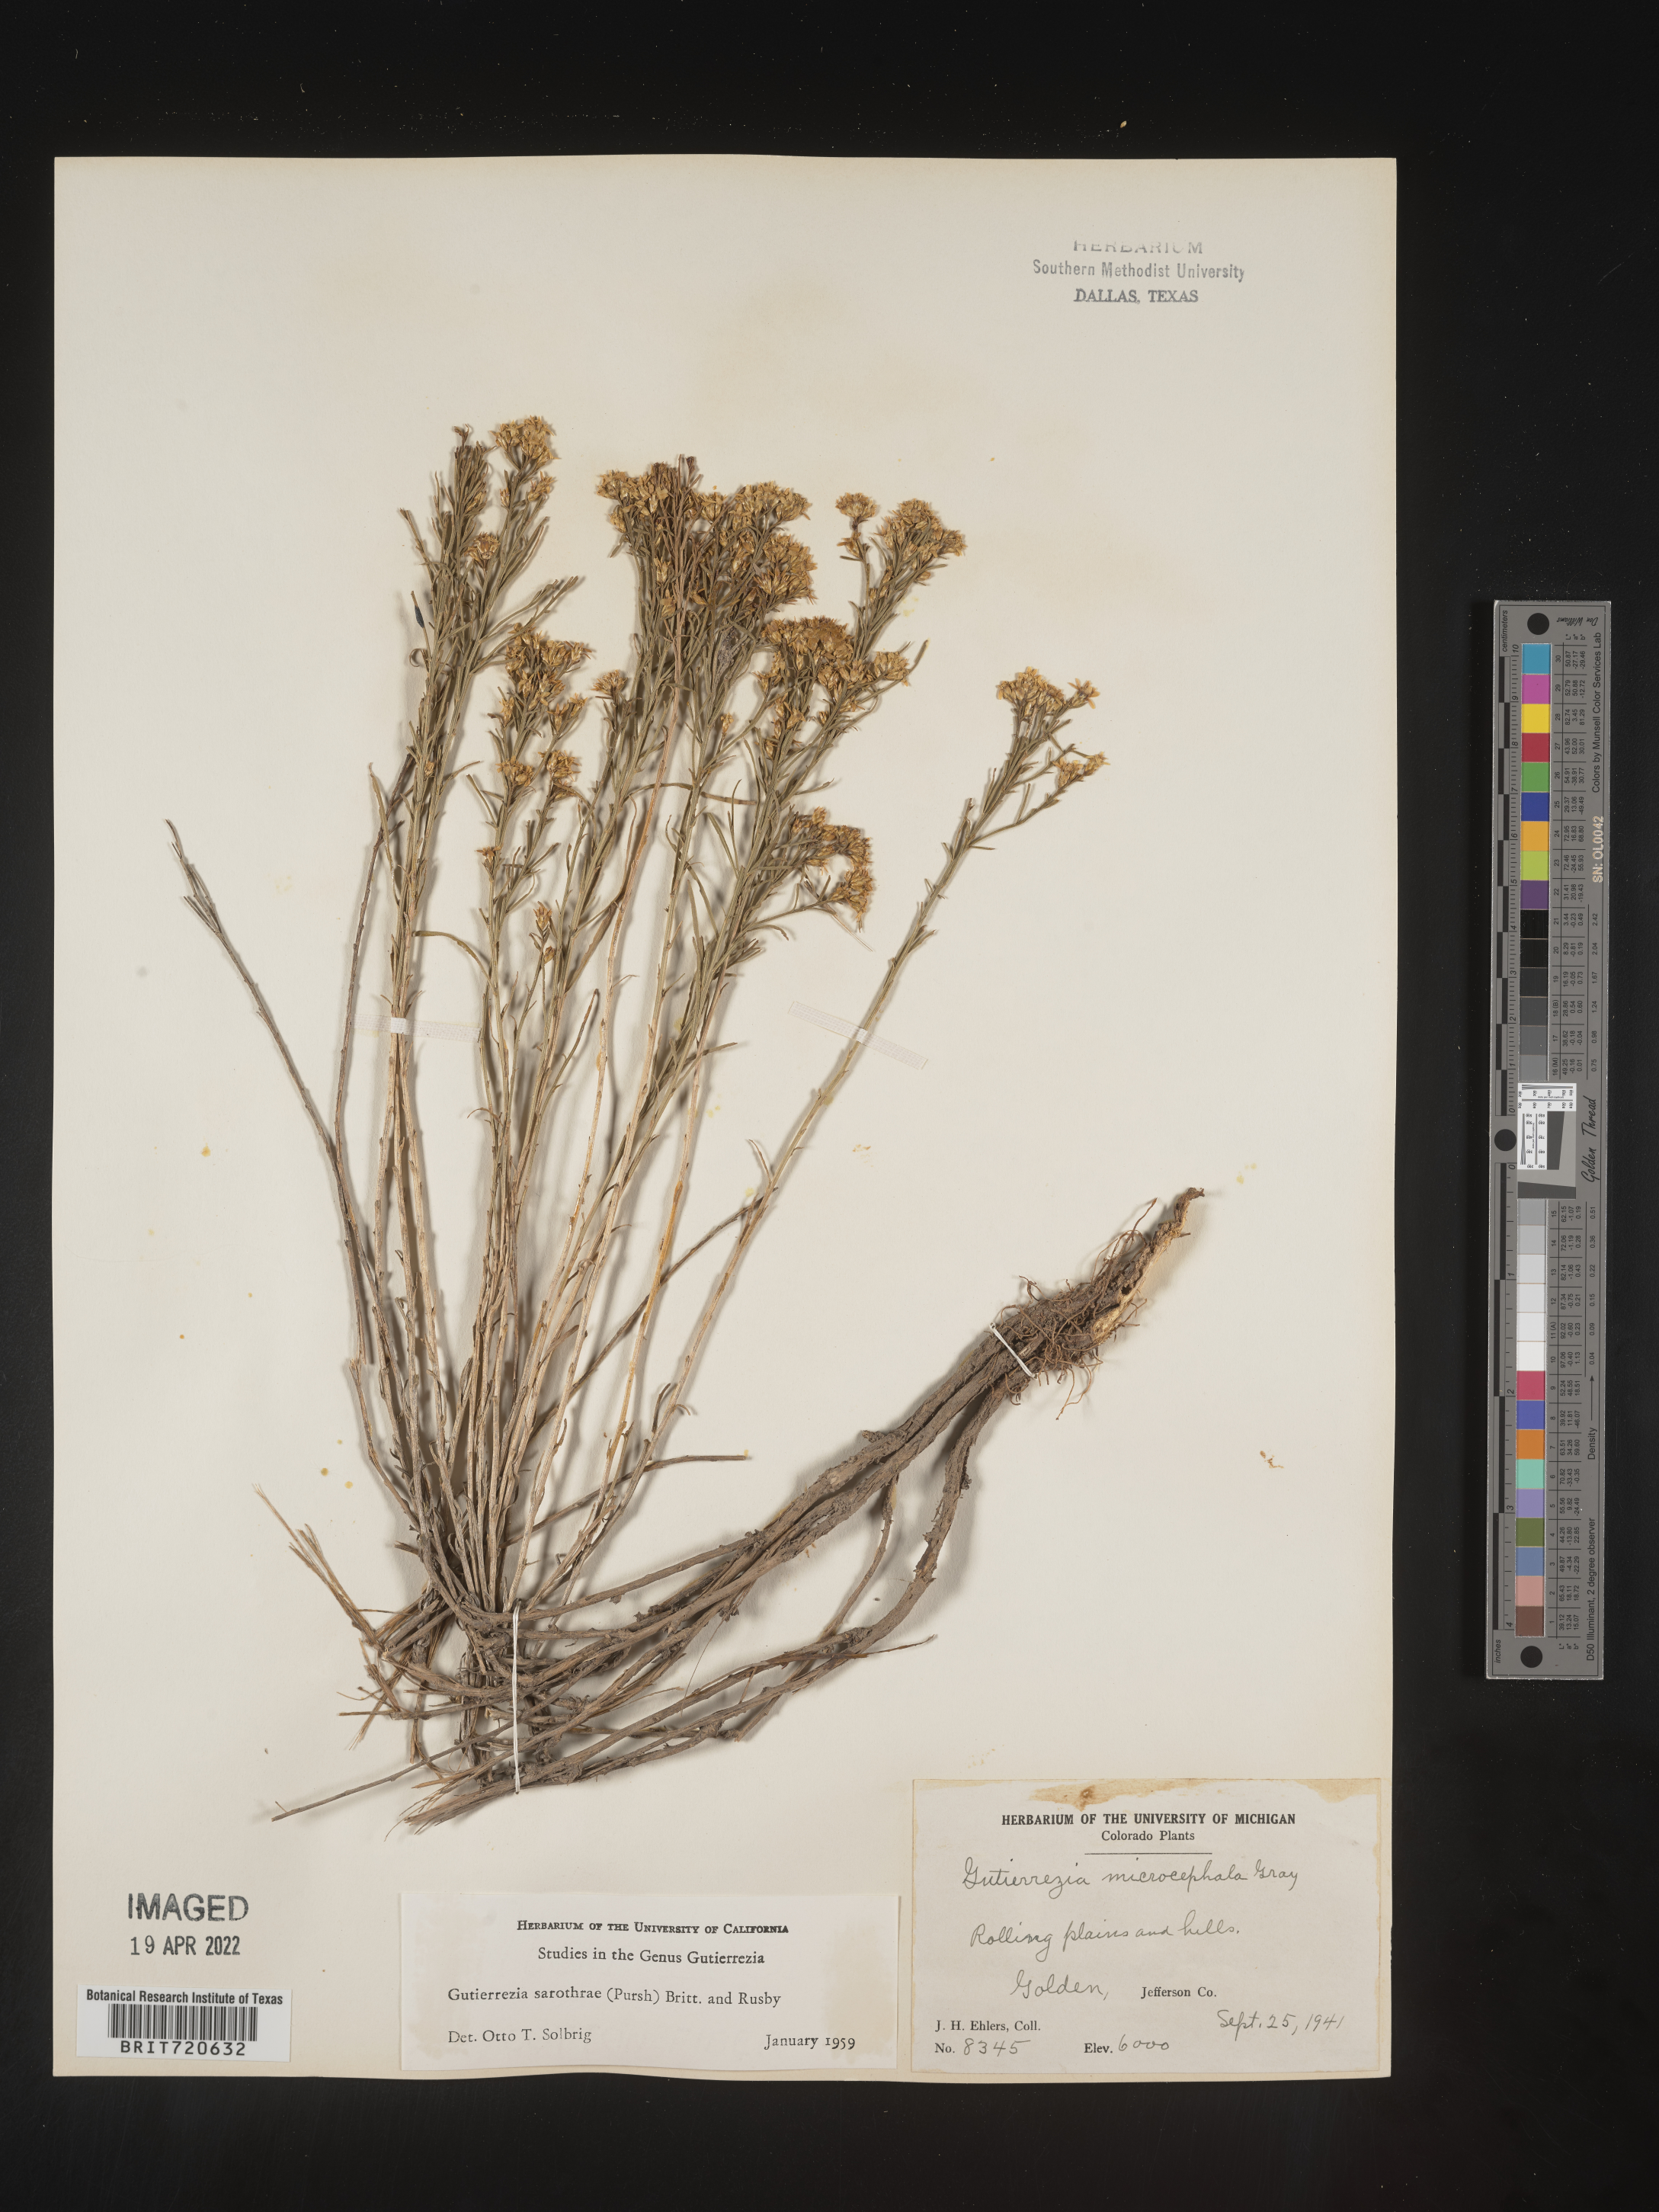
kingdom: Plantae
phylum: Tracheophyta
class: Magnoliopsida
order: Asterales
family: Asteraceae
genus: Gutierrezia
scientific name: Gutierrezia sarothrae
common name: Broom snakeweed
